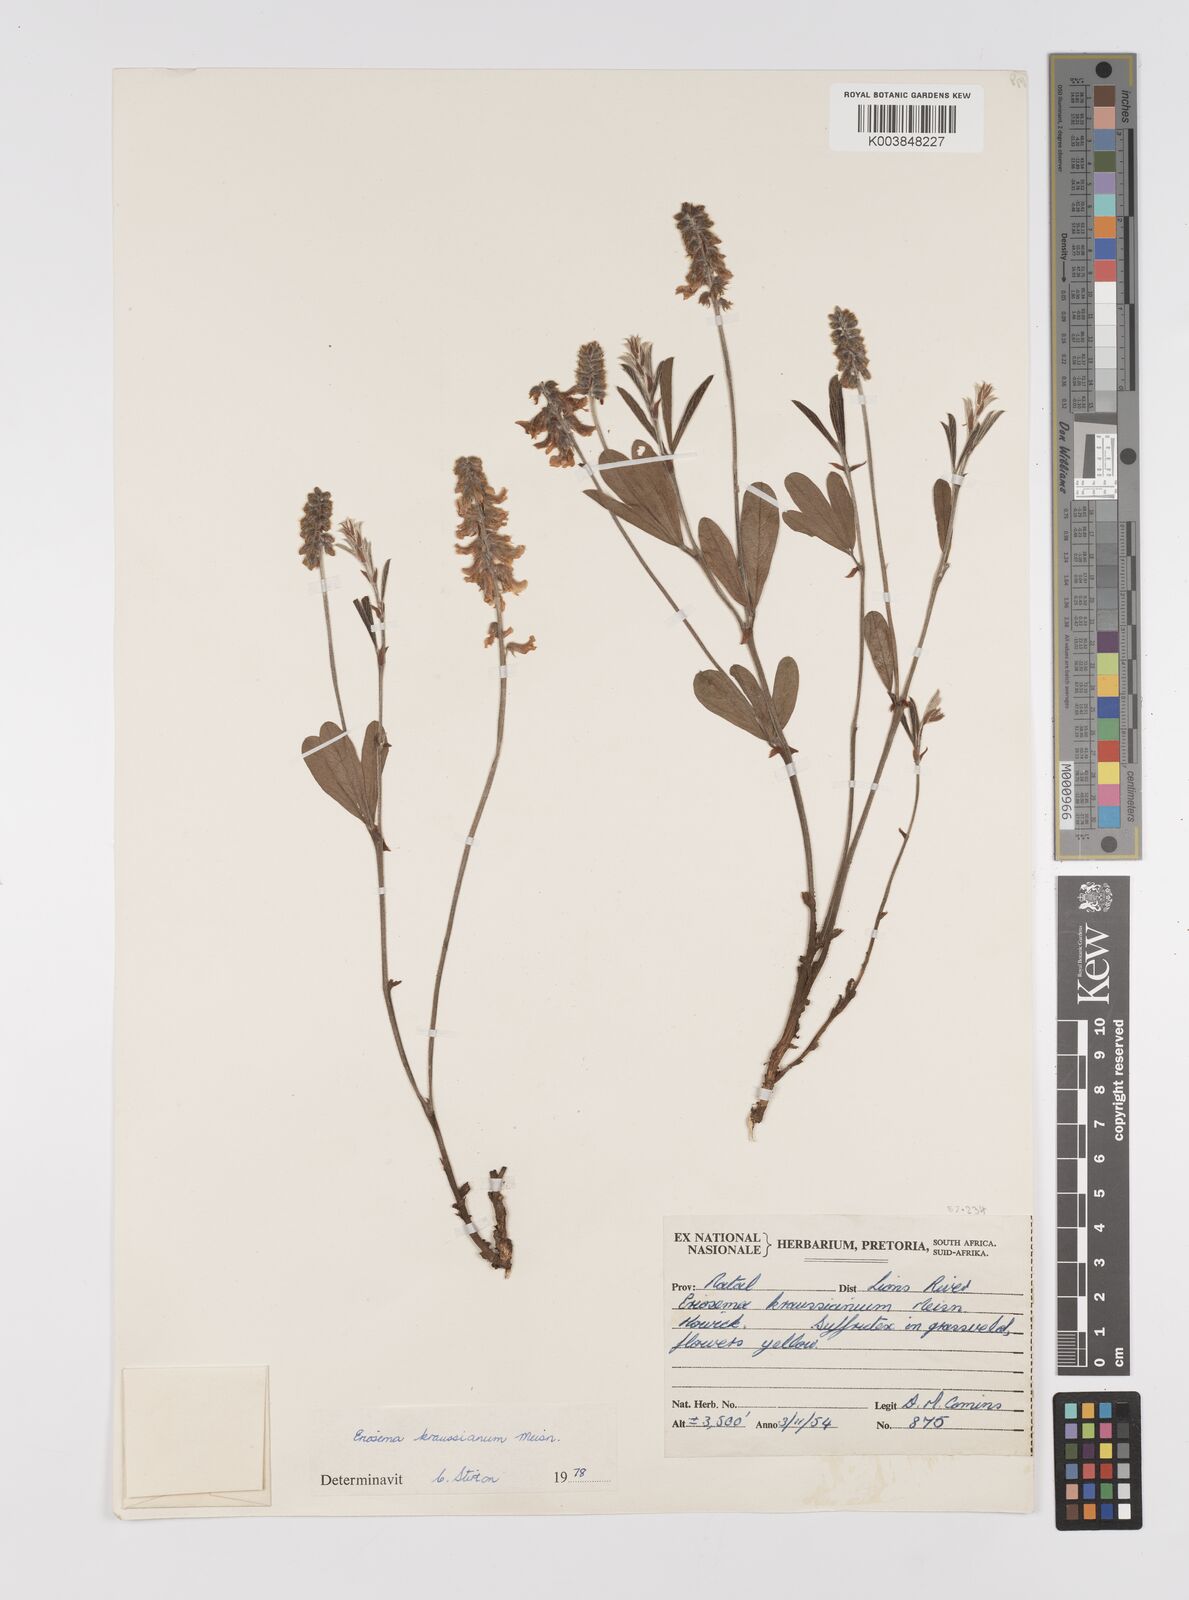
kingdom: Plantae
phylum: Tracheophyta
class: Magnoliopsida
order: Fabales
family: Fabaceae
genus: Eriosema
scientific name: Eriosema kraussianum
